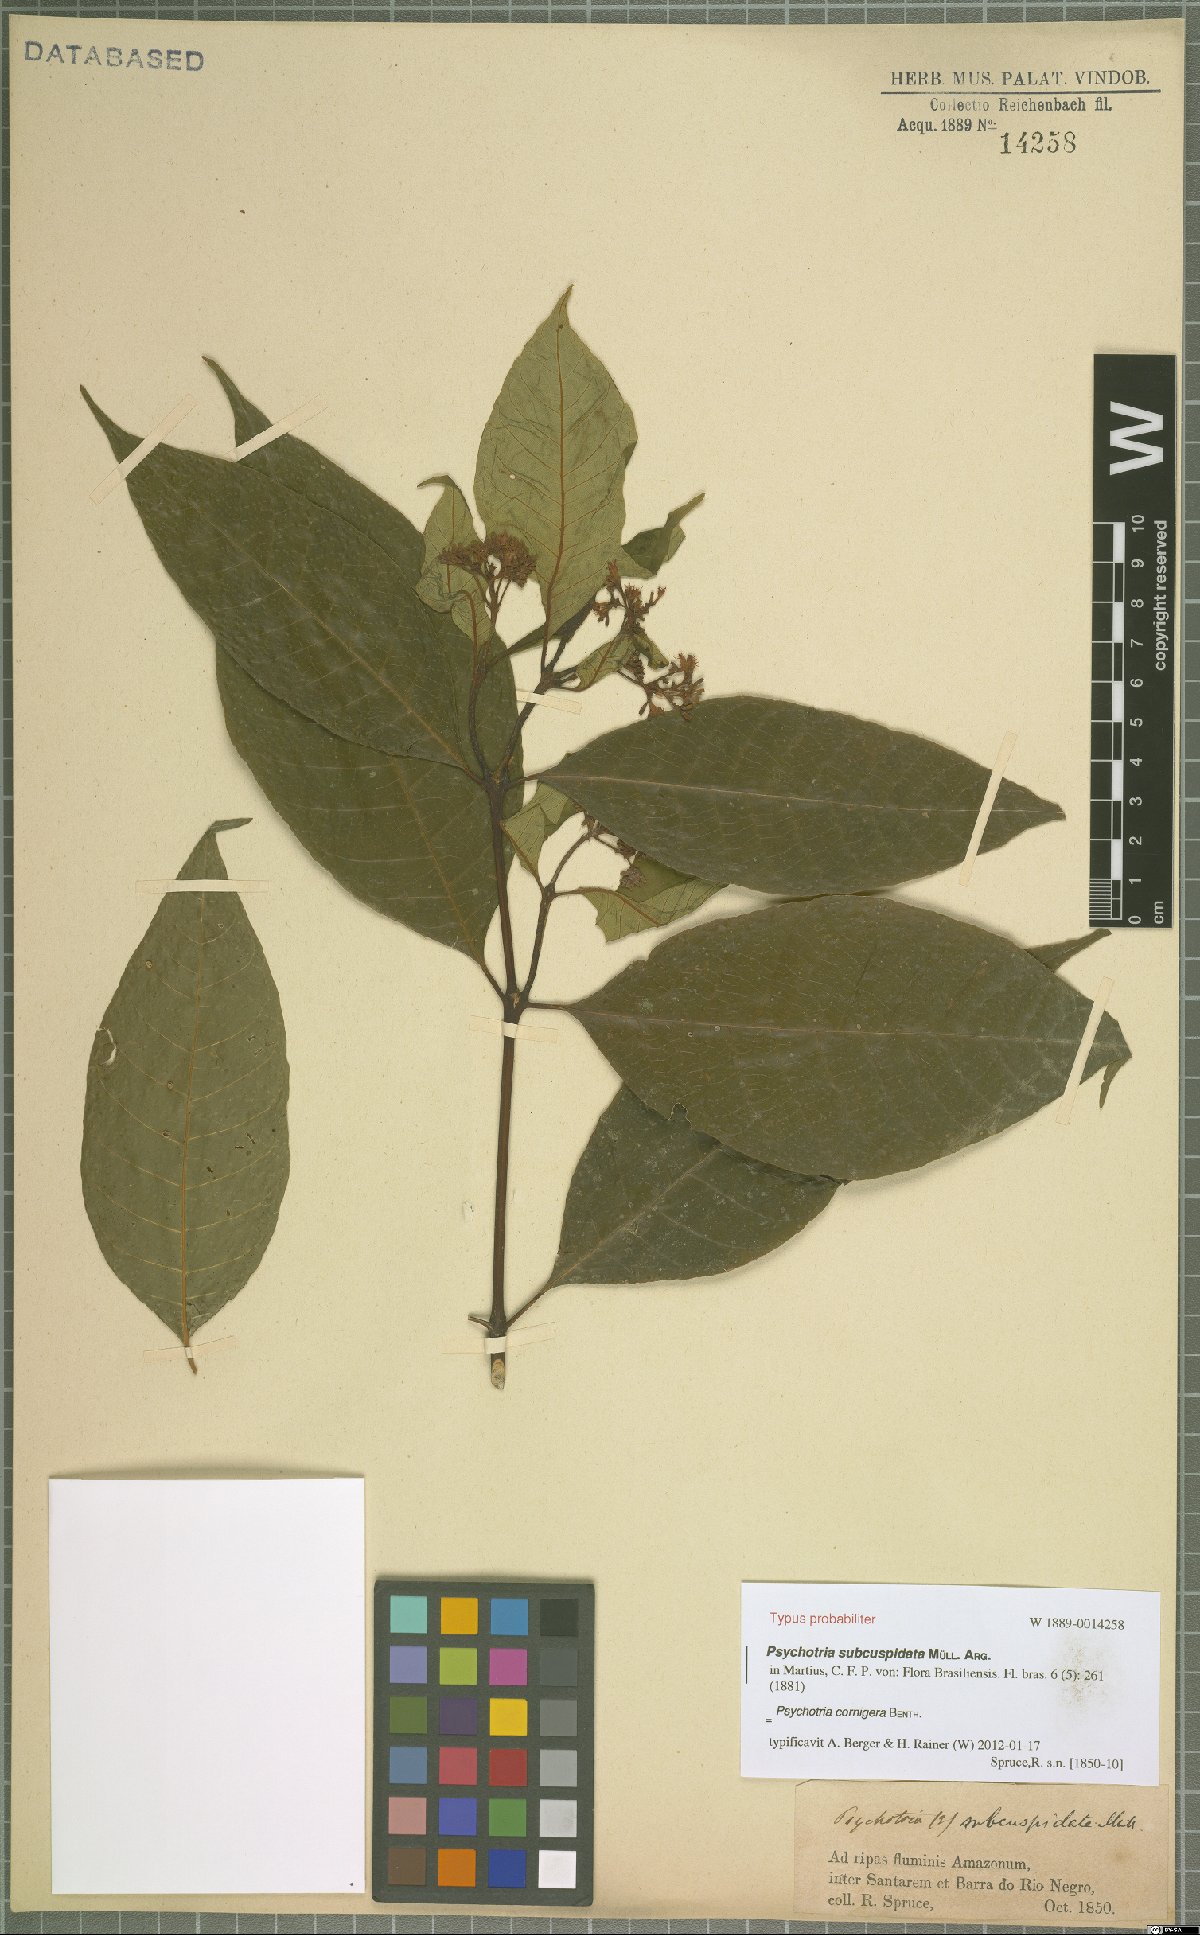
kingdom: Plantae
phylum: Tracheophyta
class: Magnoliopsida
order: Gentianales
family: Rubiaceae
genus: Palicourea
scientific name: Palicourea subcuspidata
